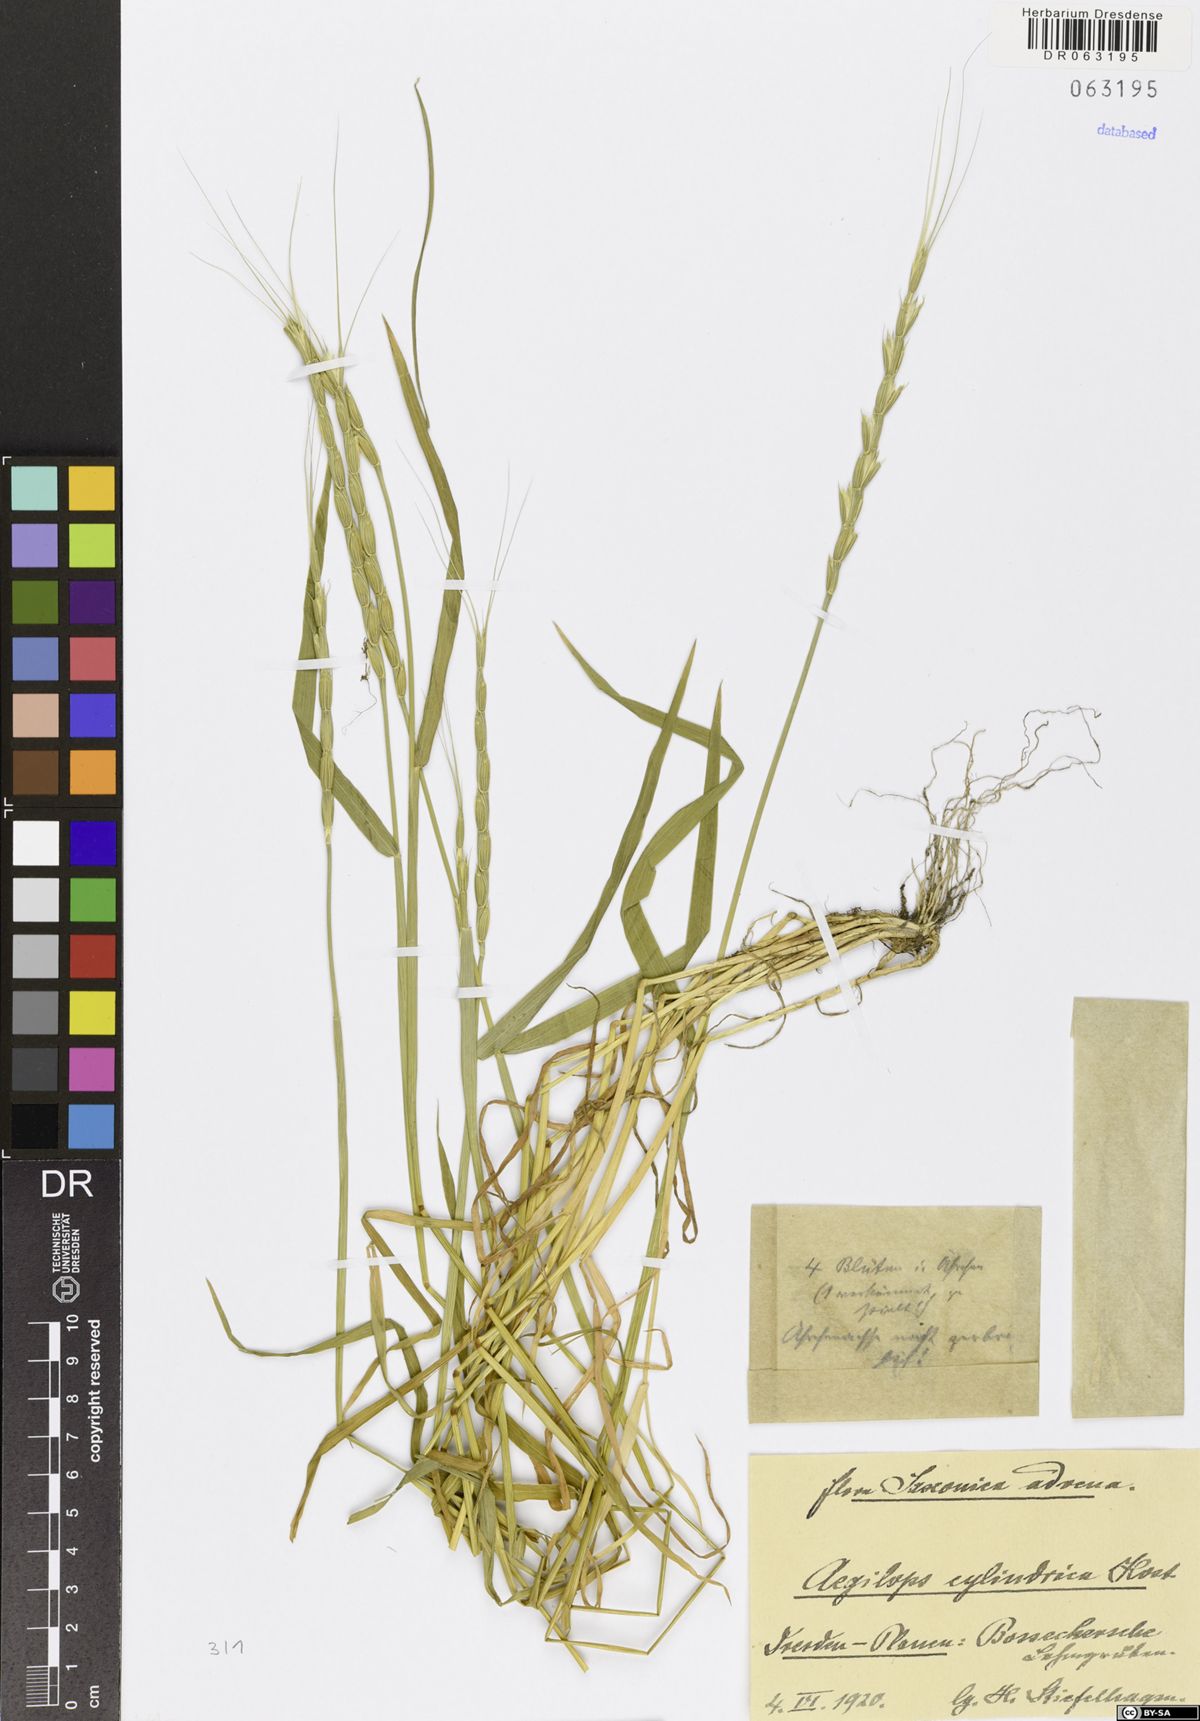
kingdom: Plantae
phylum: Tracheophyta
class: Liliopsida
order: Poales
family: Poaceae
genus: Aegilops
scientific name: Aegilops cylindrica
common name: Jointed goatgrass
